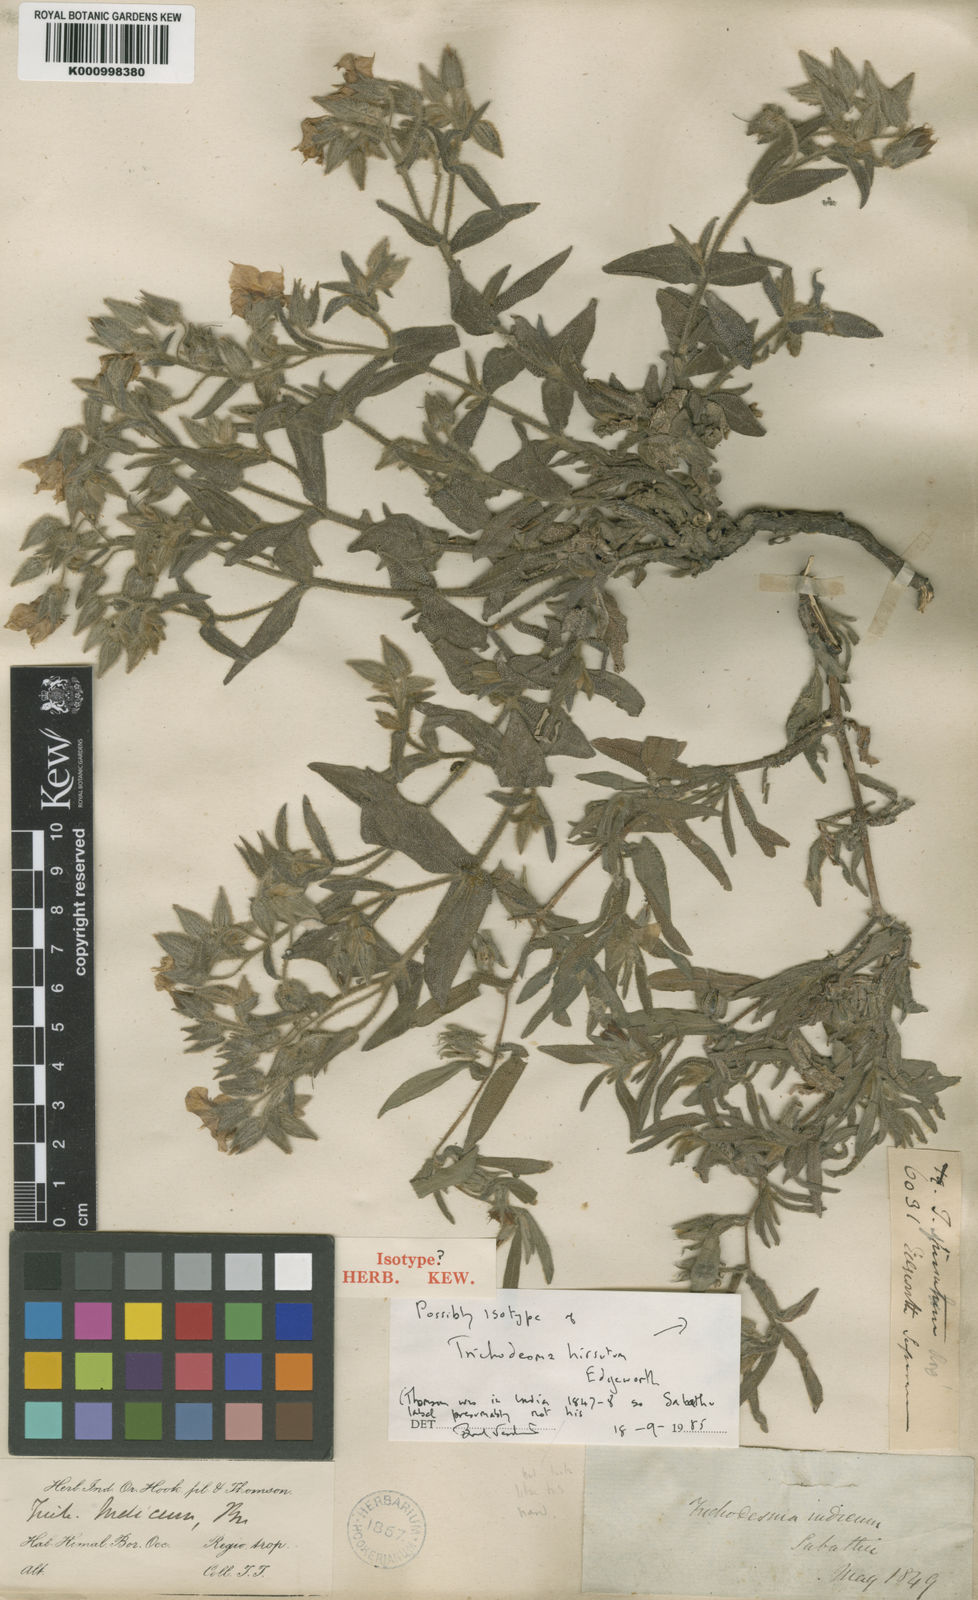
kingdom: Plantae
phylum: Tracheophyta
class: Magnoliopsida
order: Boraginales
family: Boraginaceae
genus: Trichodesma
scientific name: Trichodesma
